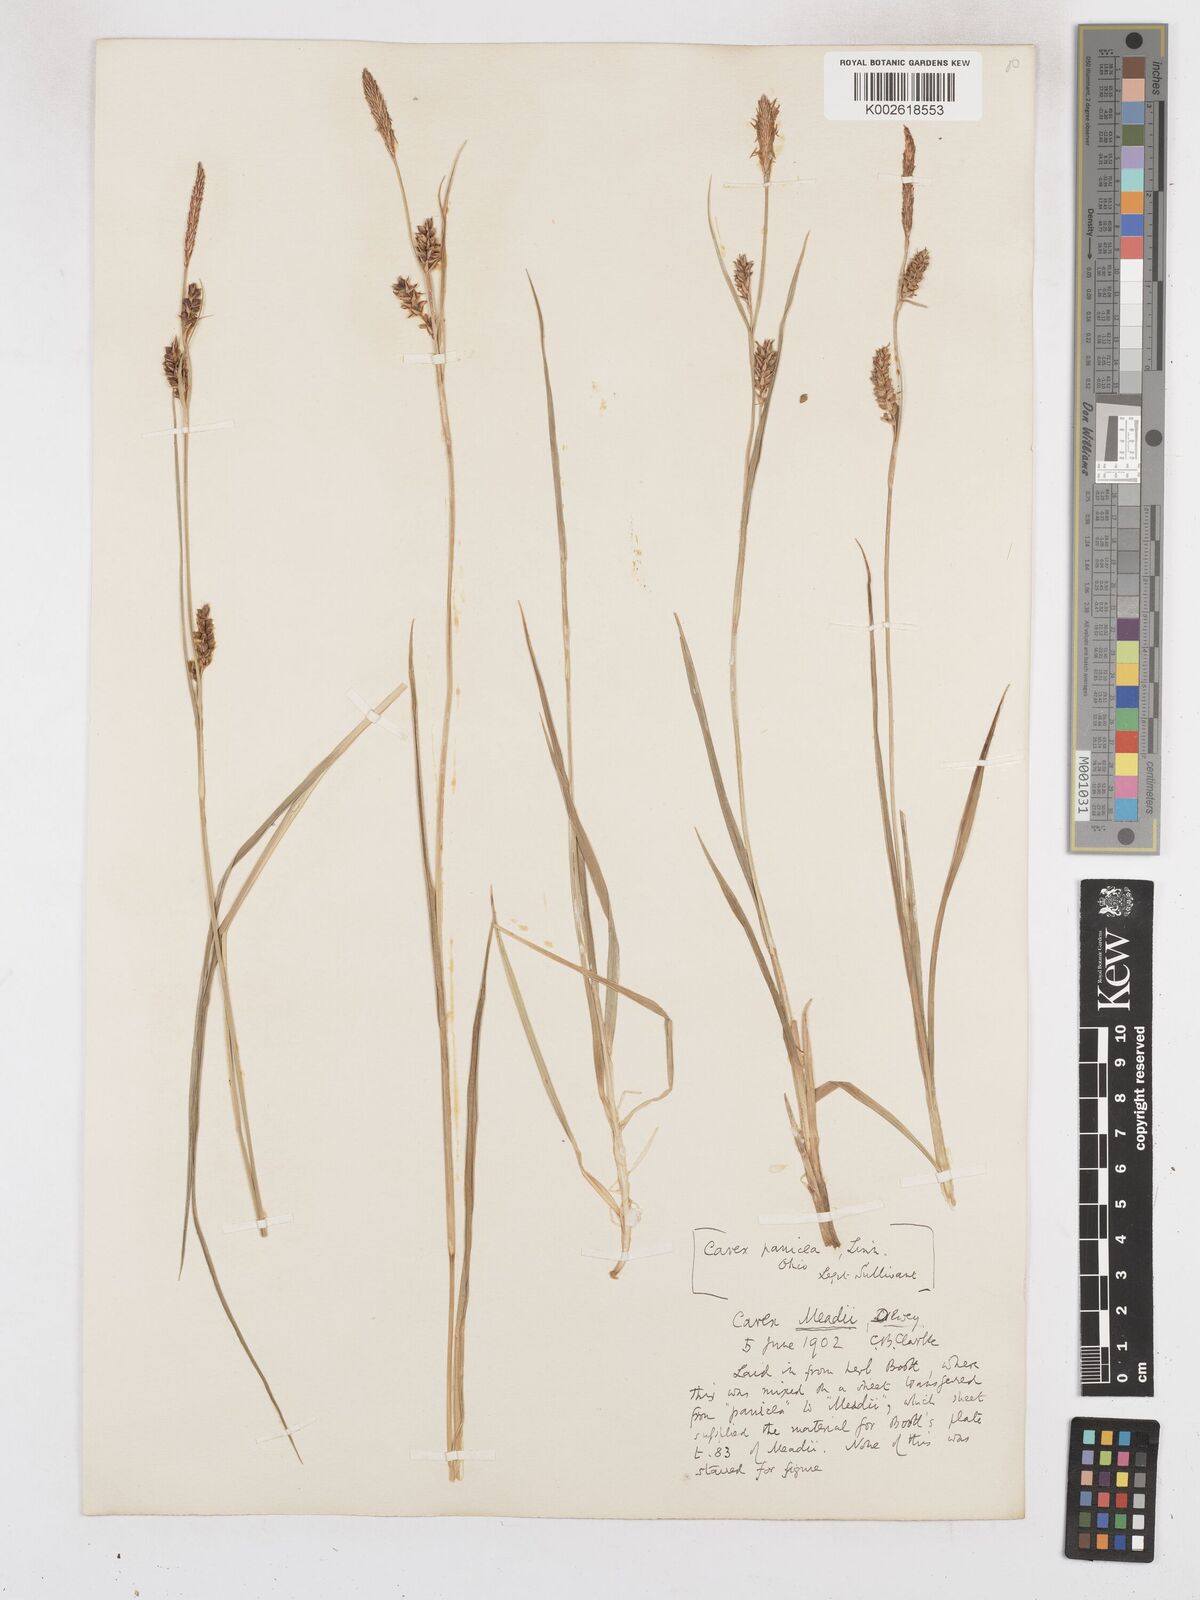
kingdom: Plantae
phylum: Tracheophyta
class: Liliopsida
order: Poales
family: Cyperaceae
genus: Carex
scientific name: Carex meadii
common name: Mead's sedge
